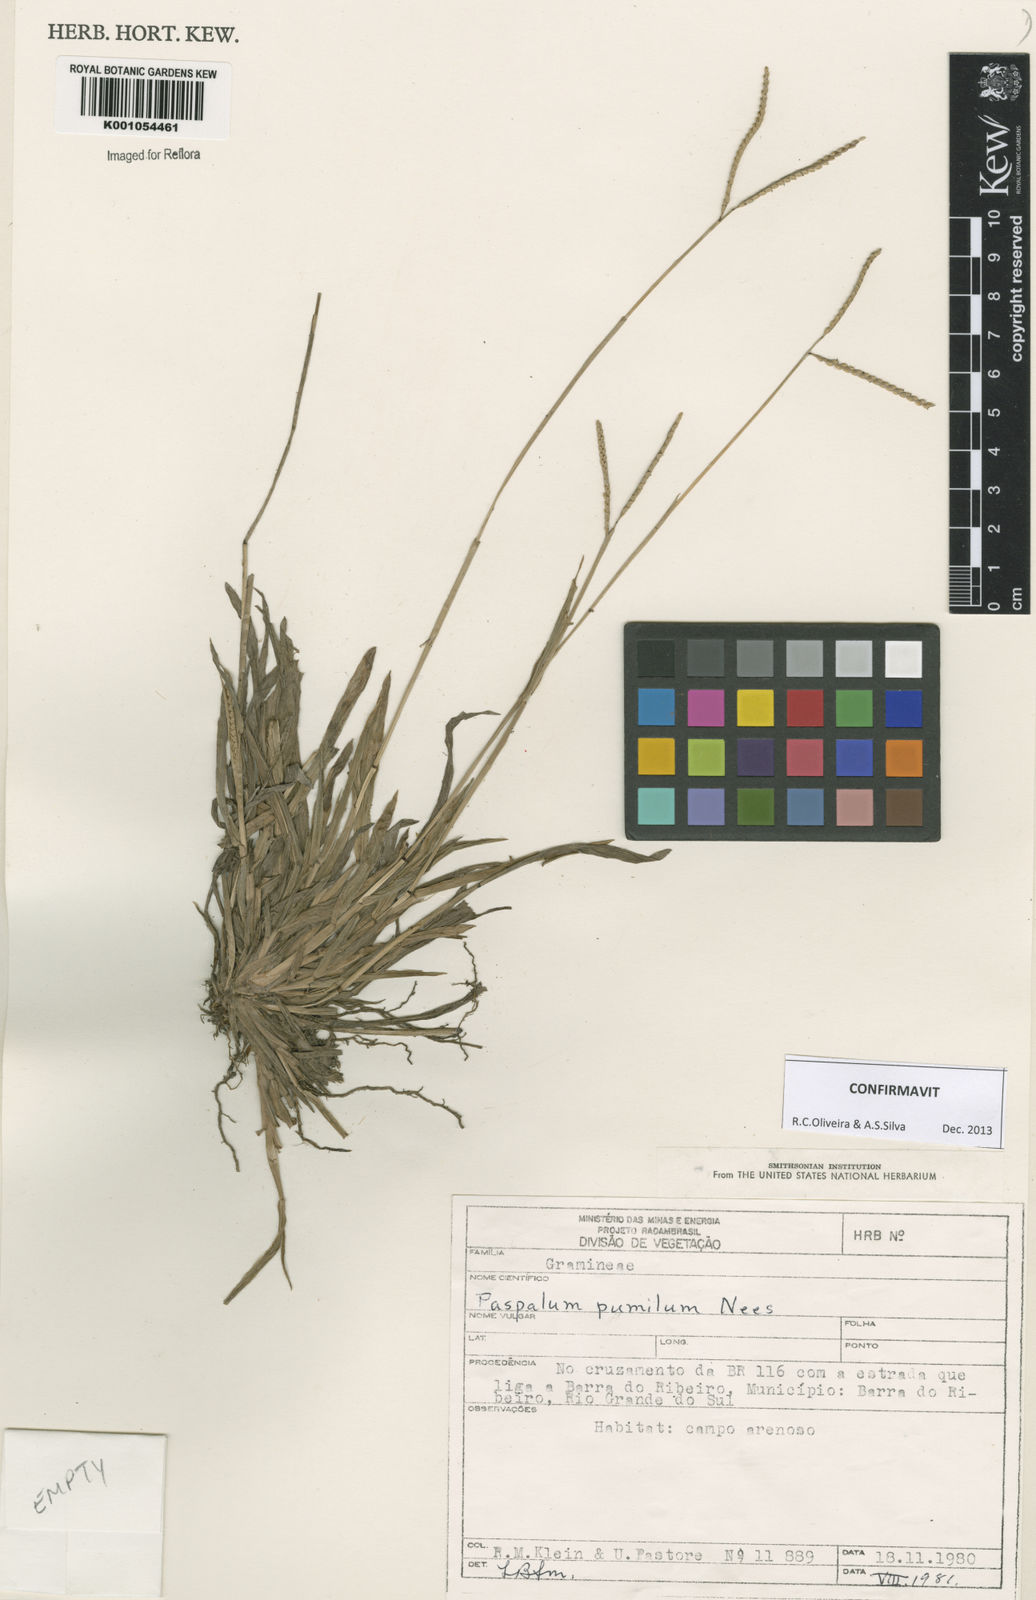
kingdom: Plantae
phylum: Tracheophyta
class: Liliopsida
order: Poales
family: Poaceae
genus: Paspalum
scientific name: Paspalum pumilum
